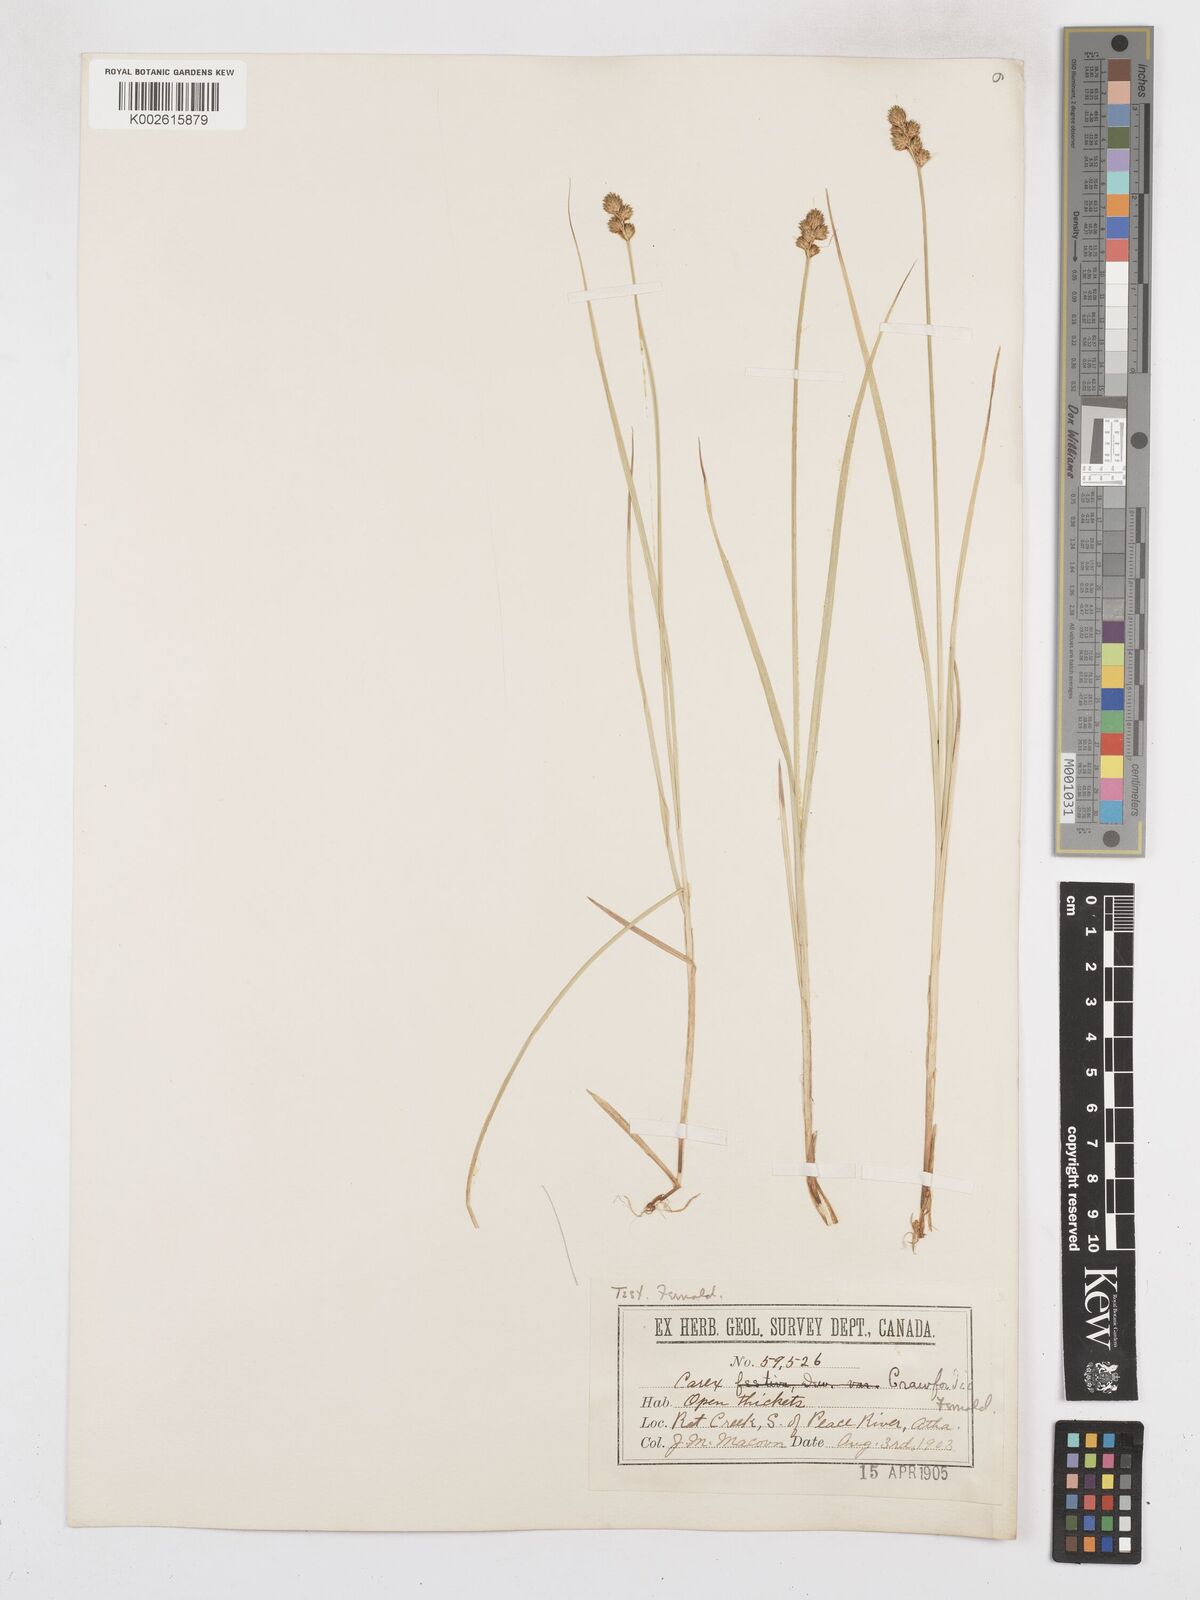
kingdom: Plantae
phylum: Tracheophyta
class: Liliopsida
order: Poales
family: Cyperaceae
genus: Carex
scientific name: Carex crawfordii
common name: Crawford's sedge
